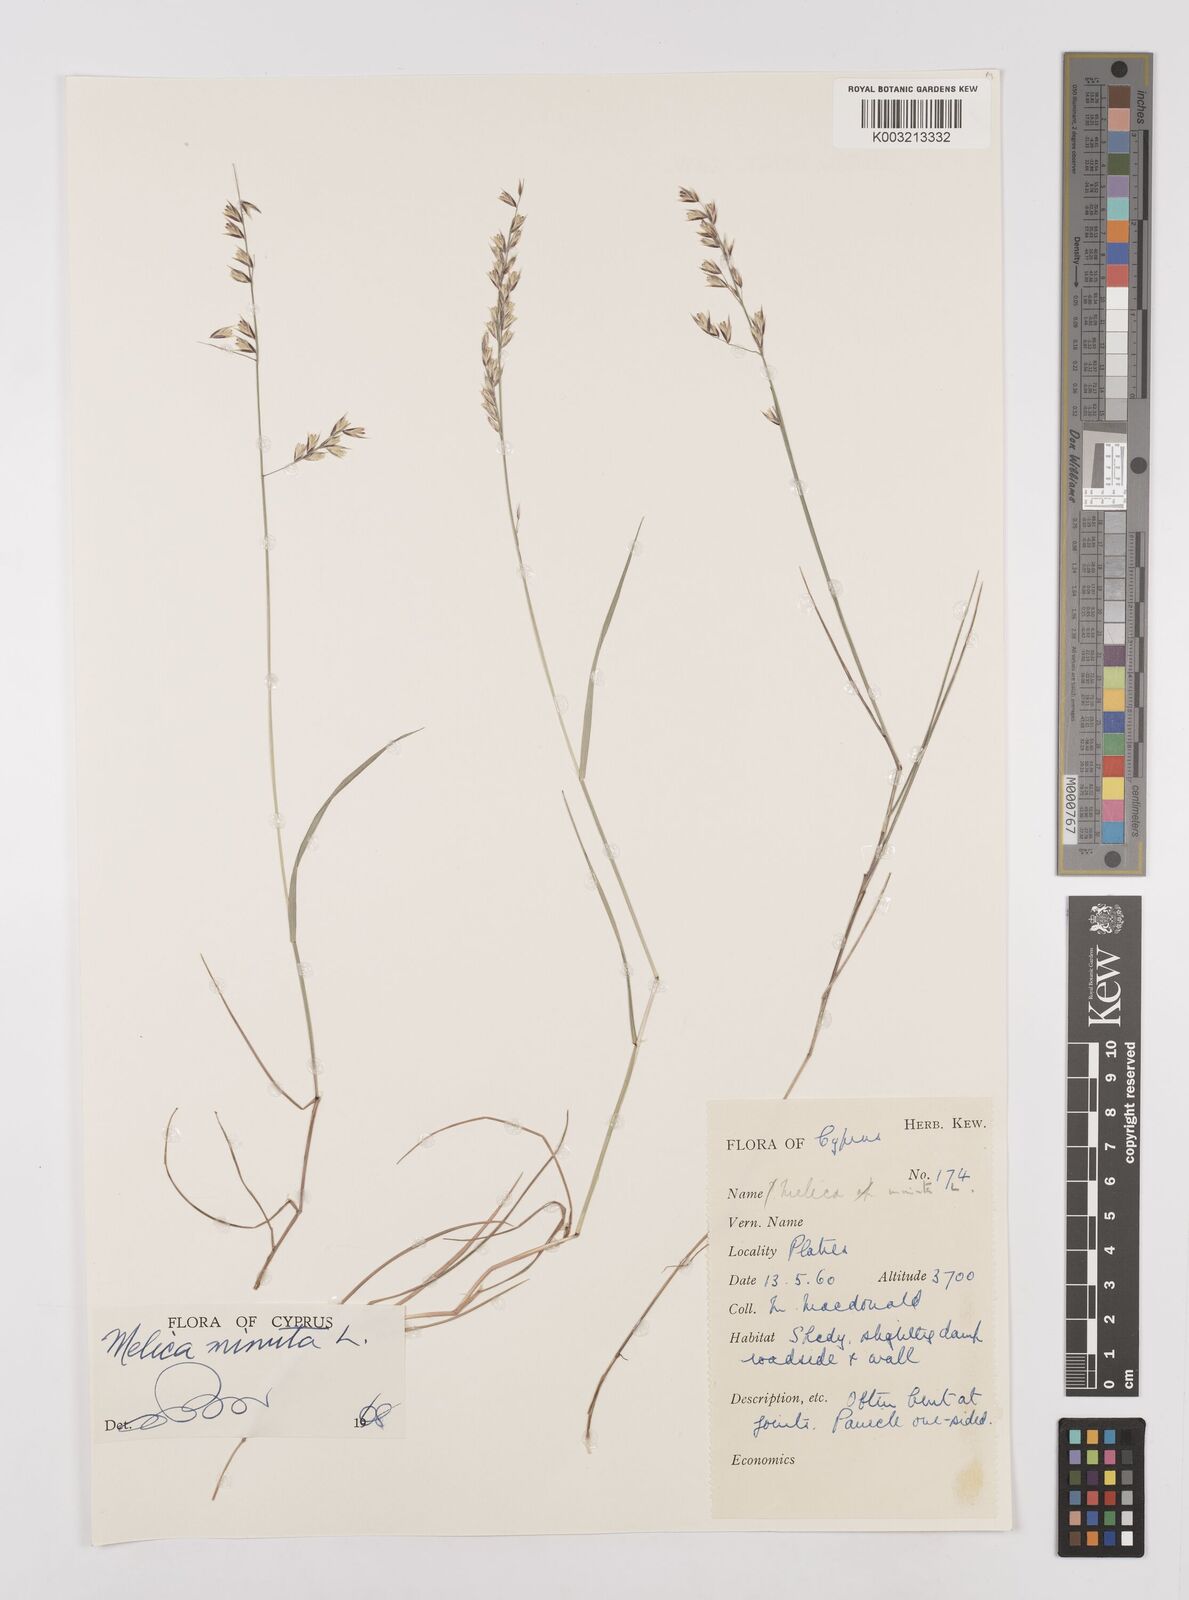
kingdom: Plantae
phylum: Tracheophyta
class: Liliopsida
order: Poales
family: Poaceae
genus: Melica
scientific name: Melica minuta
